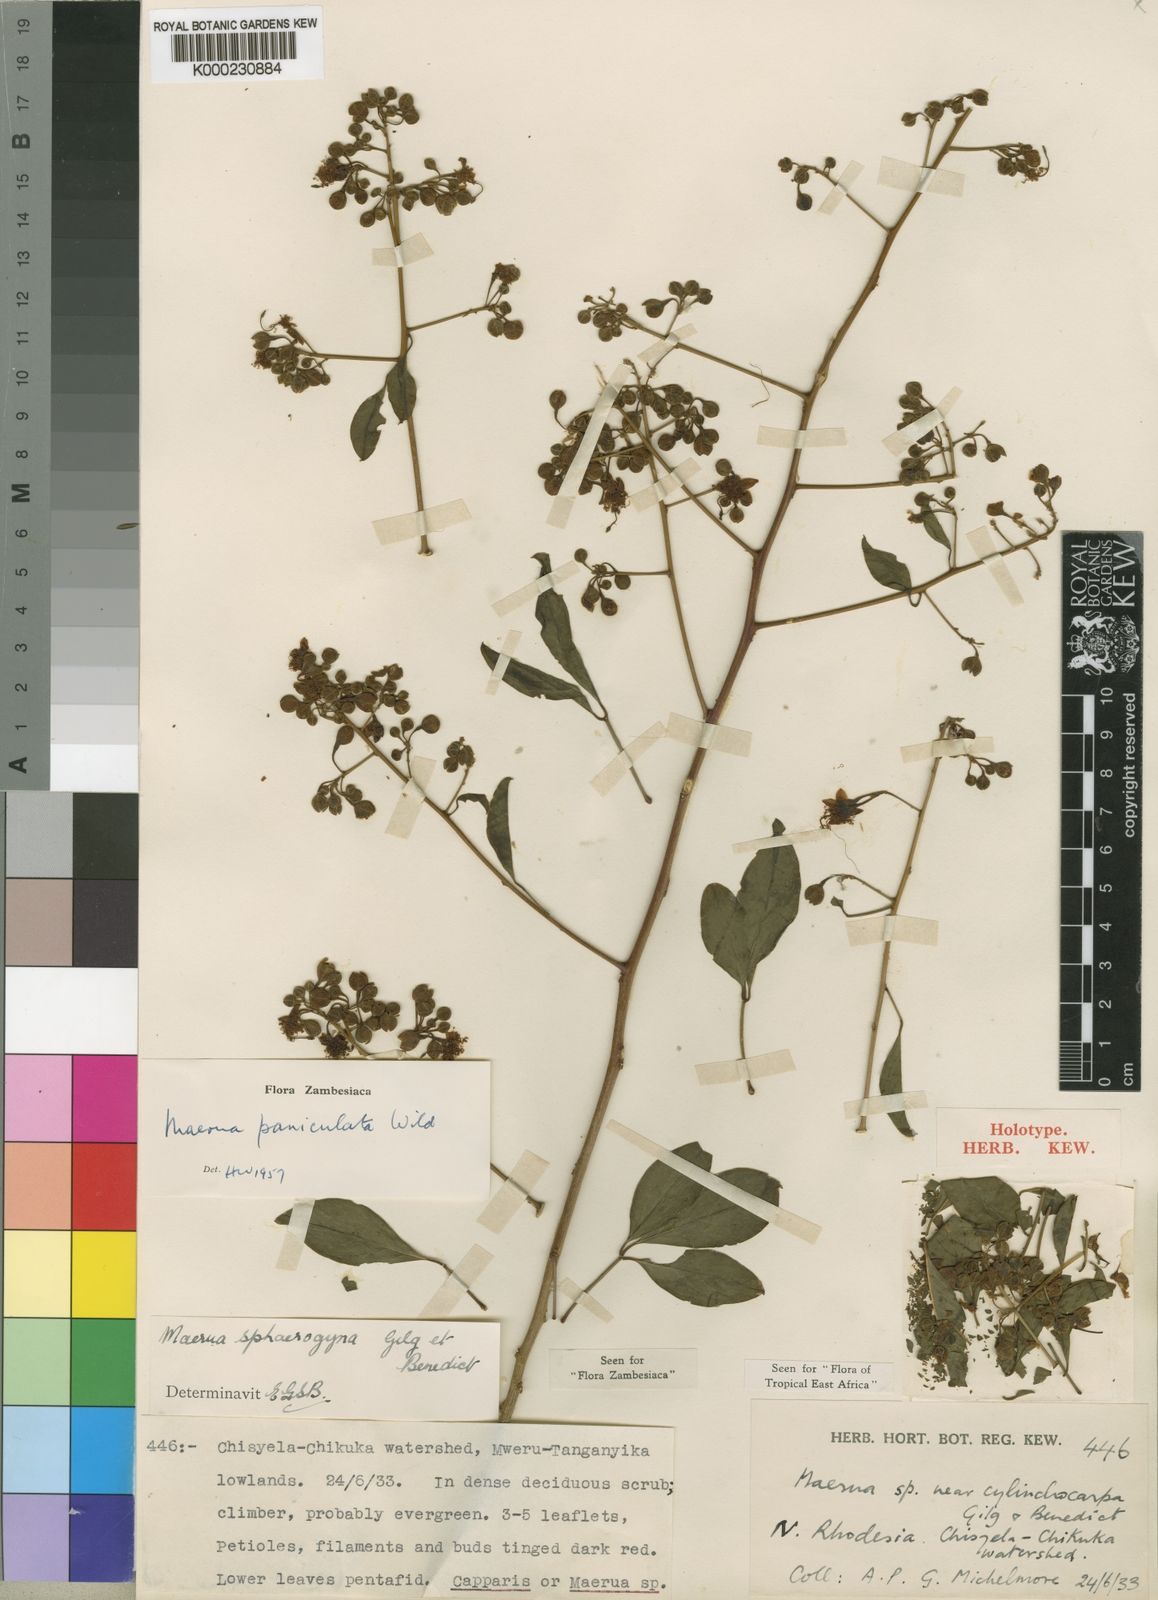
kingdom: Plantae
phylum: Tracheophyta
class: Magnoliopsida
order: Brassicales
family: Capparaceae
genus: Maerua
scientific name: Maerua paniculata
